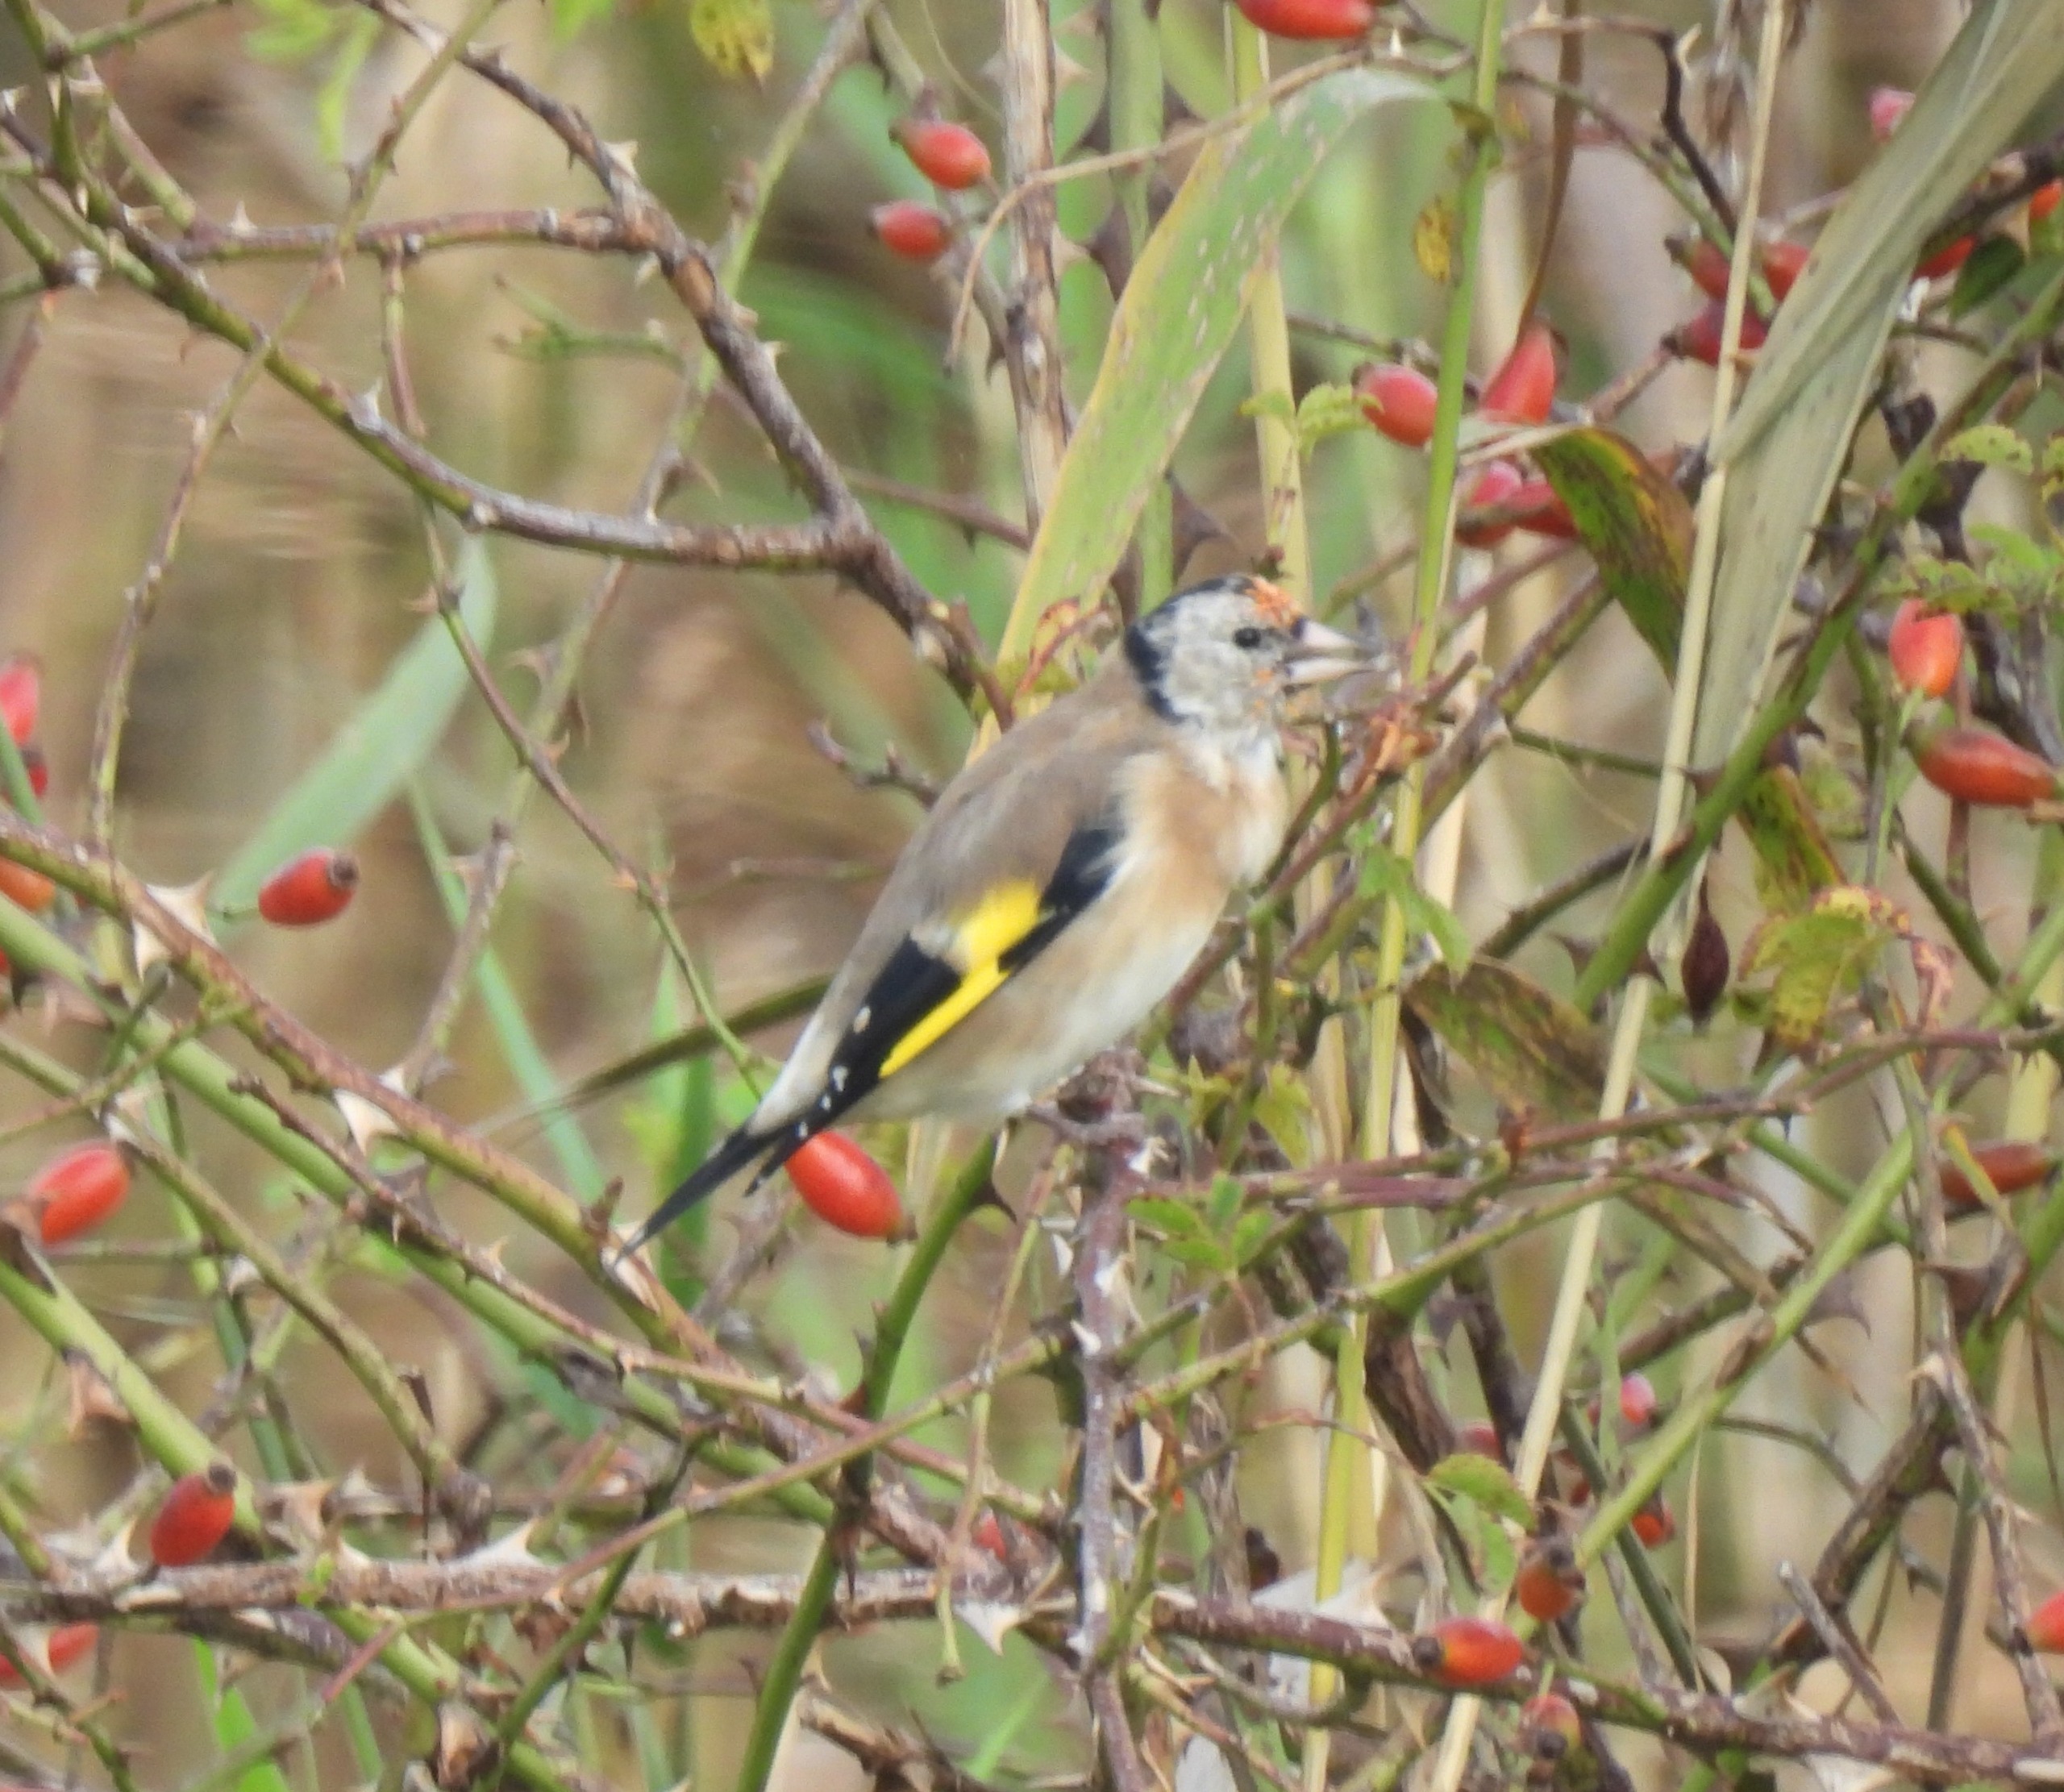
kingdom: Animalia
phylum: Chordata
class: Aves
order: Passeriformes
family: Fringillidae
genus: Carduelis
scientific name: Carduelis carduelis
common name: Stillits
